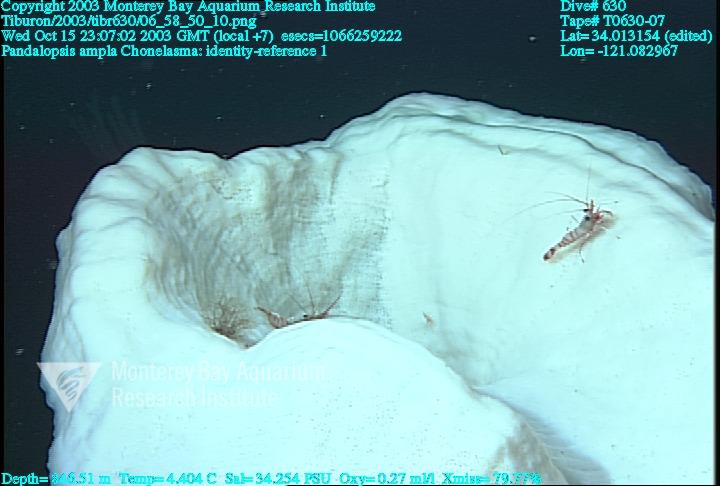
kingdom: Animalia
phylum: Porifera
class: Hexactinellida
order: Sceptrulophora
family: Euretidae
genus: Chonelasma
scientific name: Chonelasma
